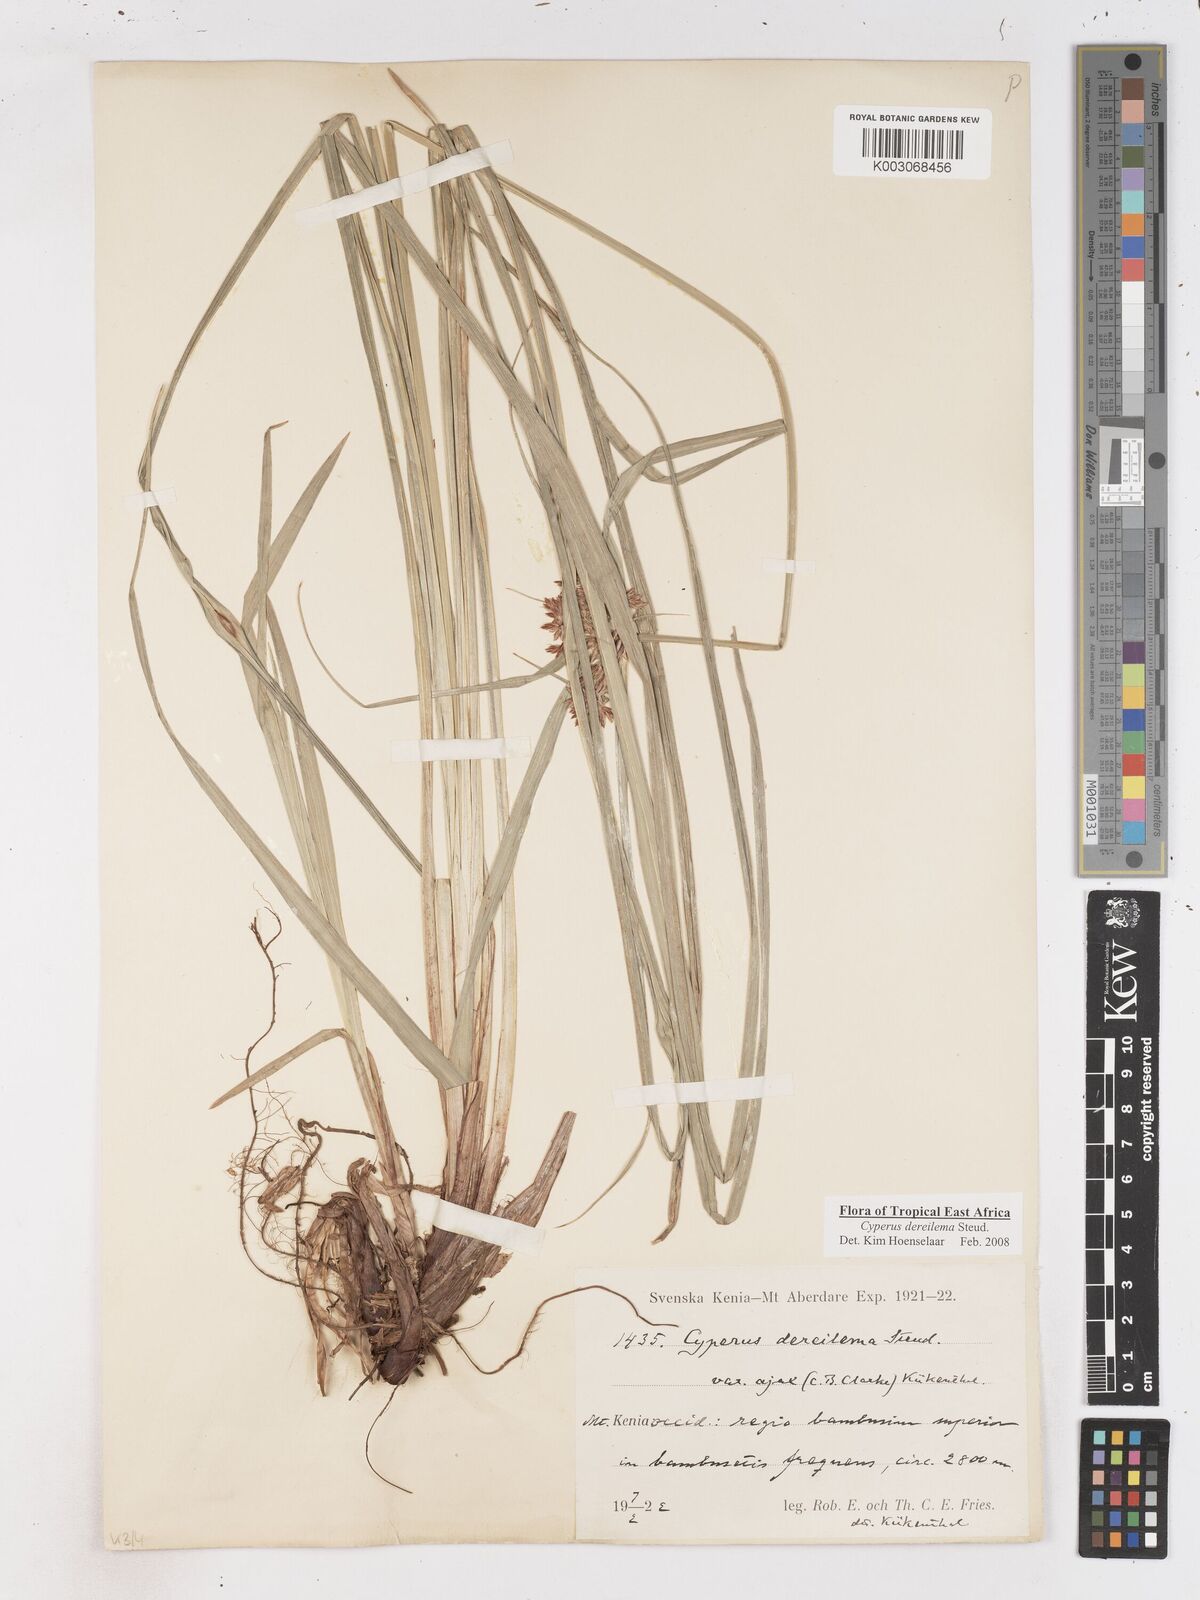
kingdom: Plantae
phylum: Tracheophyta
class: Liliopsida
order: Poales
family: Cyperaceae
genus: Cyperus
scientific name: Cyperus derreilema
